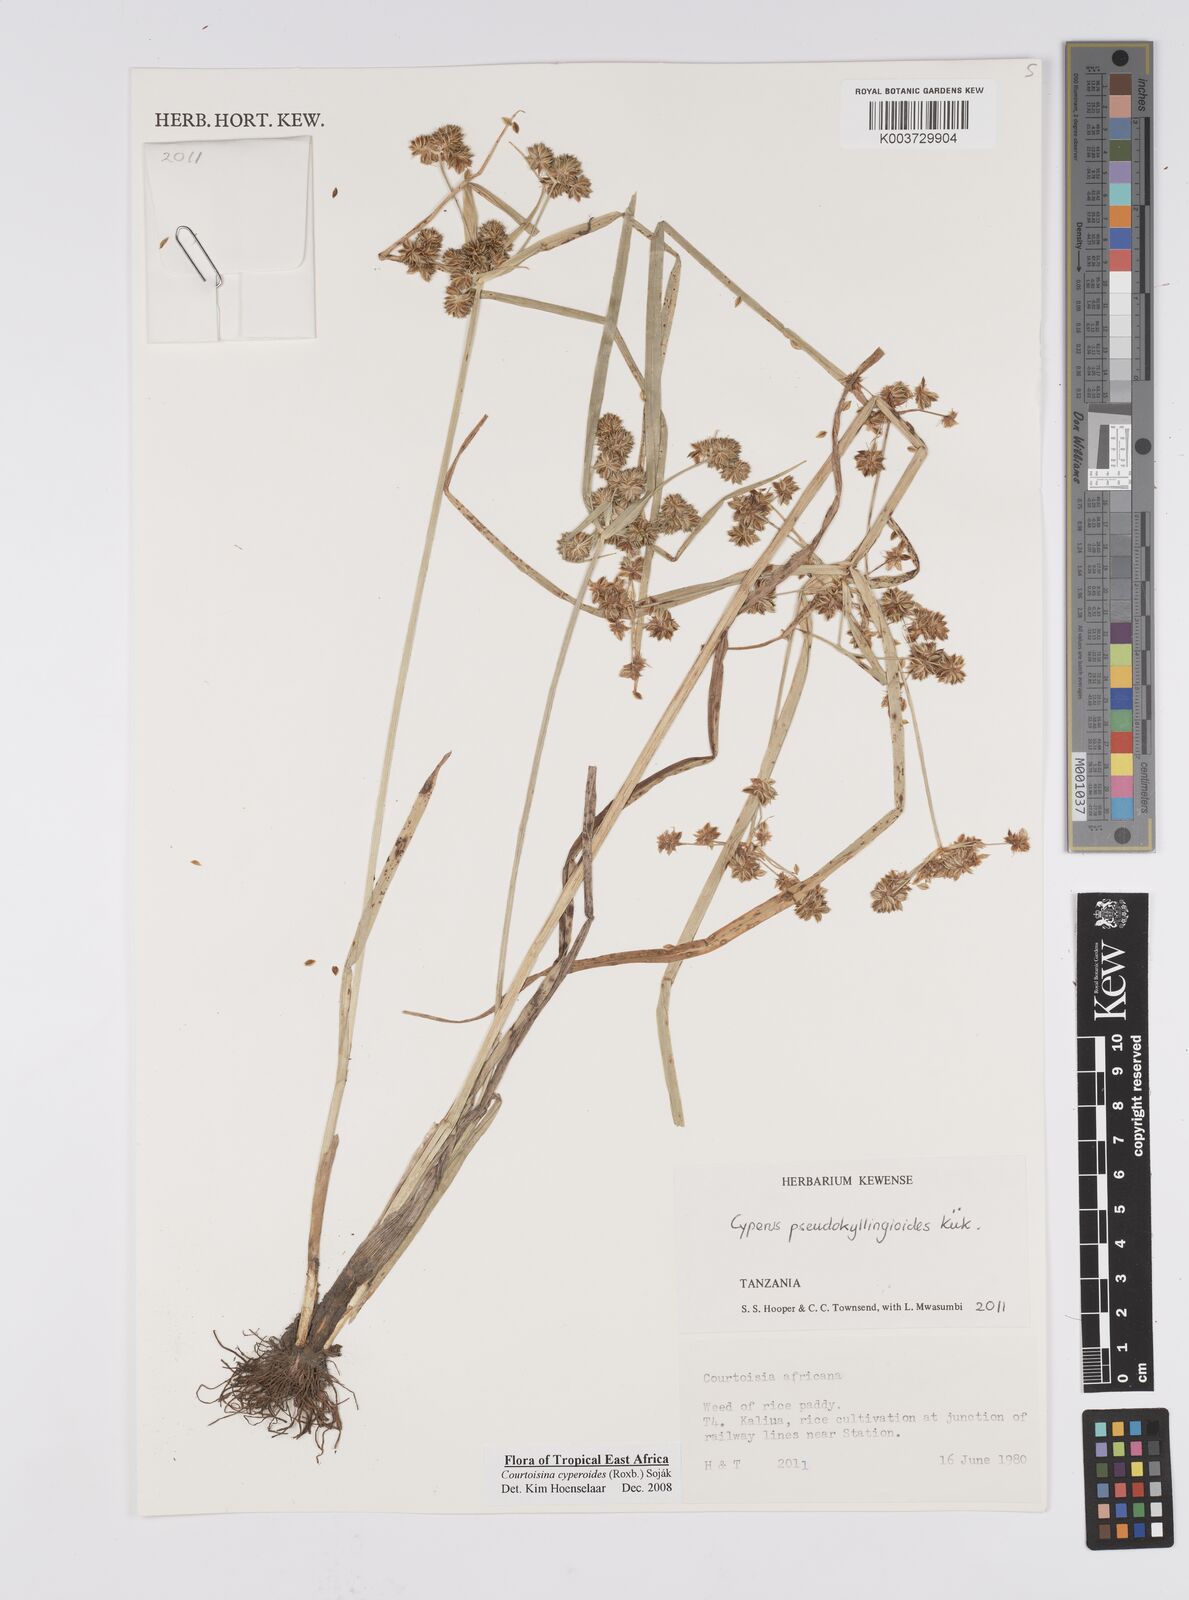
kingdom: Plantae
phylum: Tracheophyta
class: Liliopsida
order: Poales
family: Cyperaceae
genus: Cyperus
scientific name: Cyperus cyperoides
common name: Pacific island flat sedge
